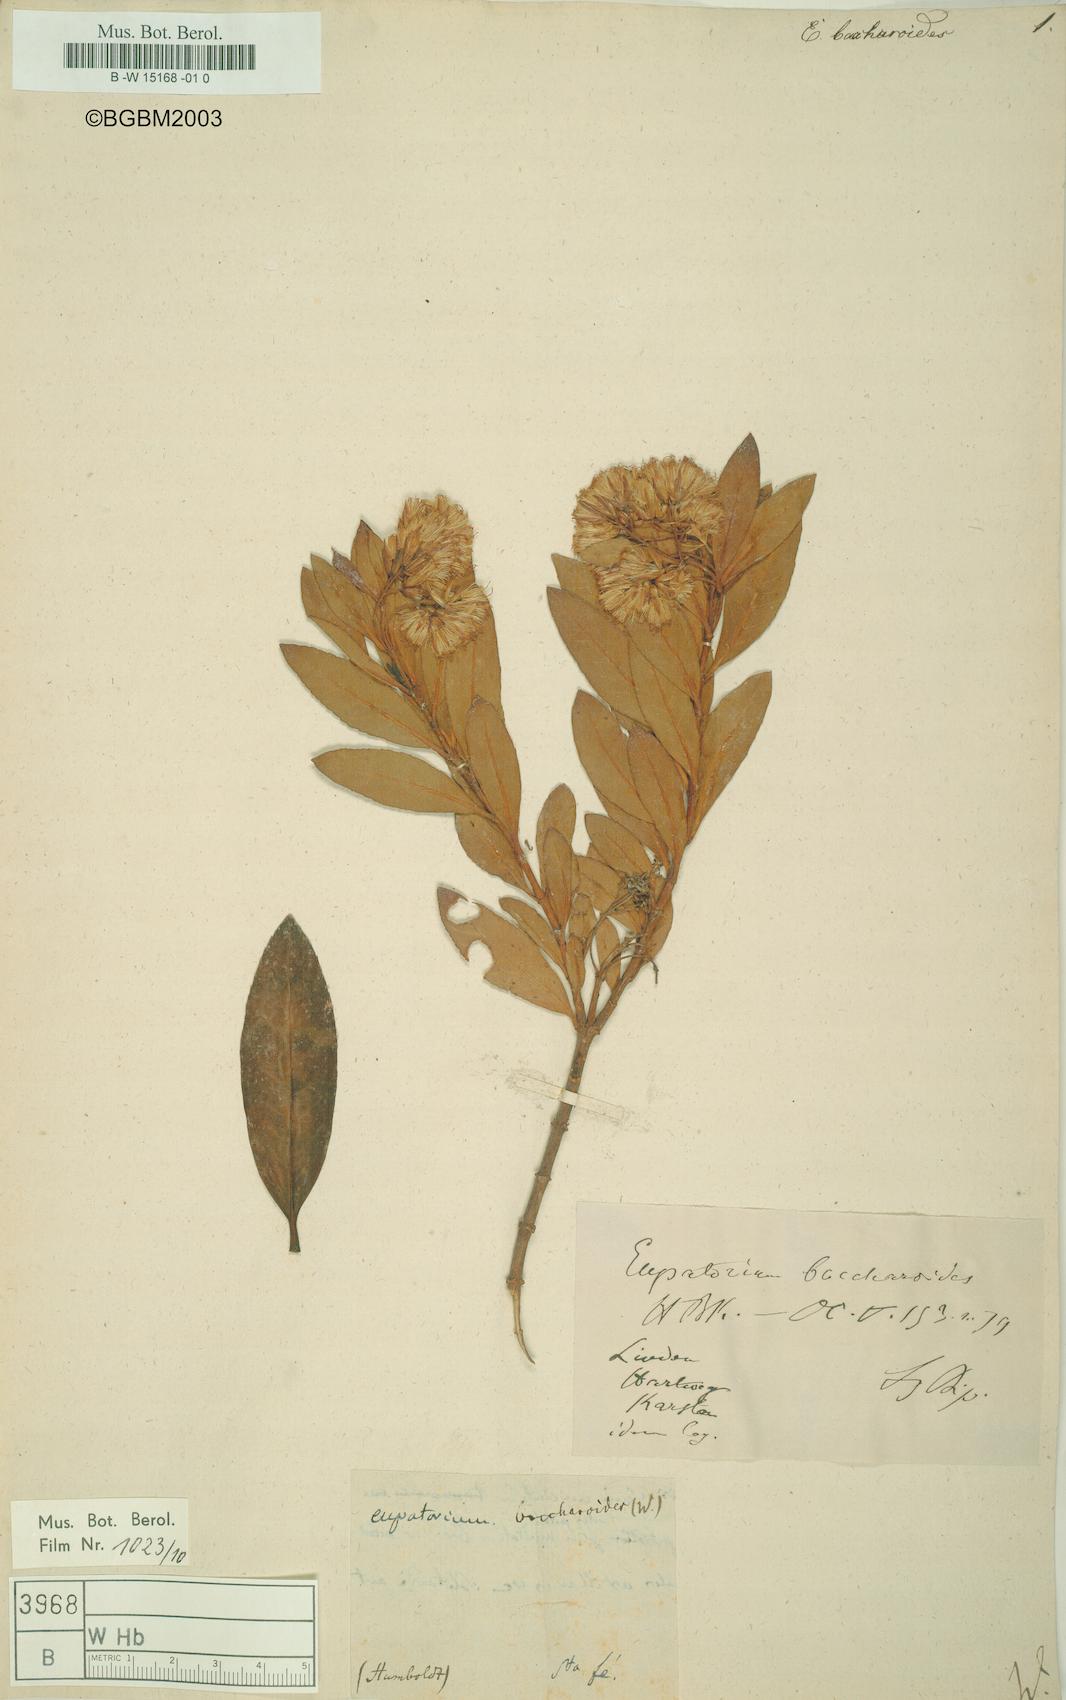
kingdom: Plantae
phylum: Tracheophyta
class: Magnoliopsida
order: Asterales
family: Asteraceae
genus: Ageratina
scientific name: Ageratina baccharoides
